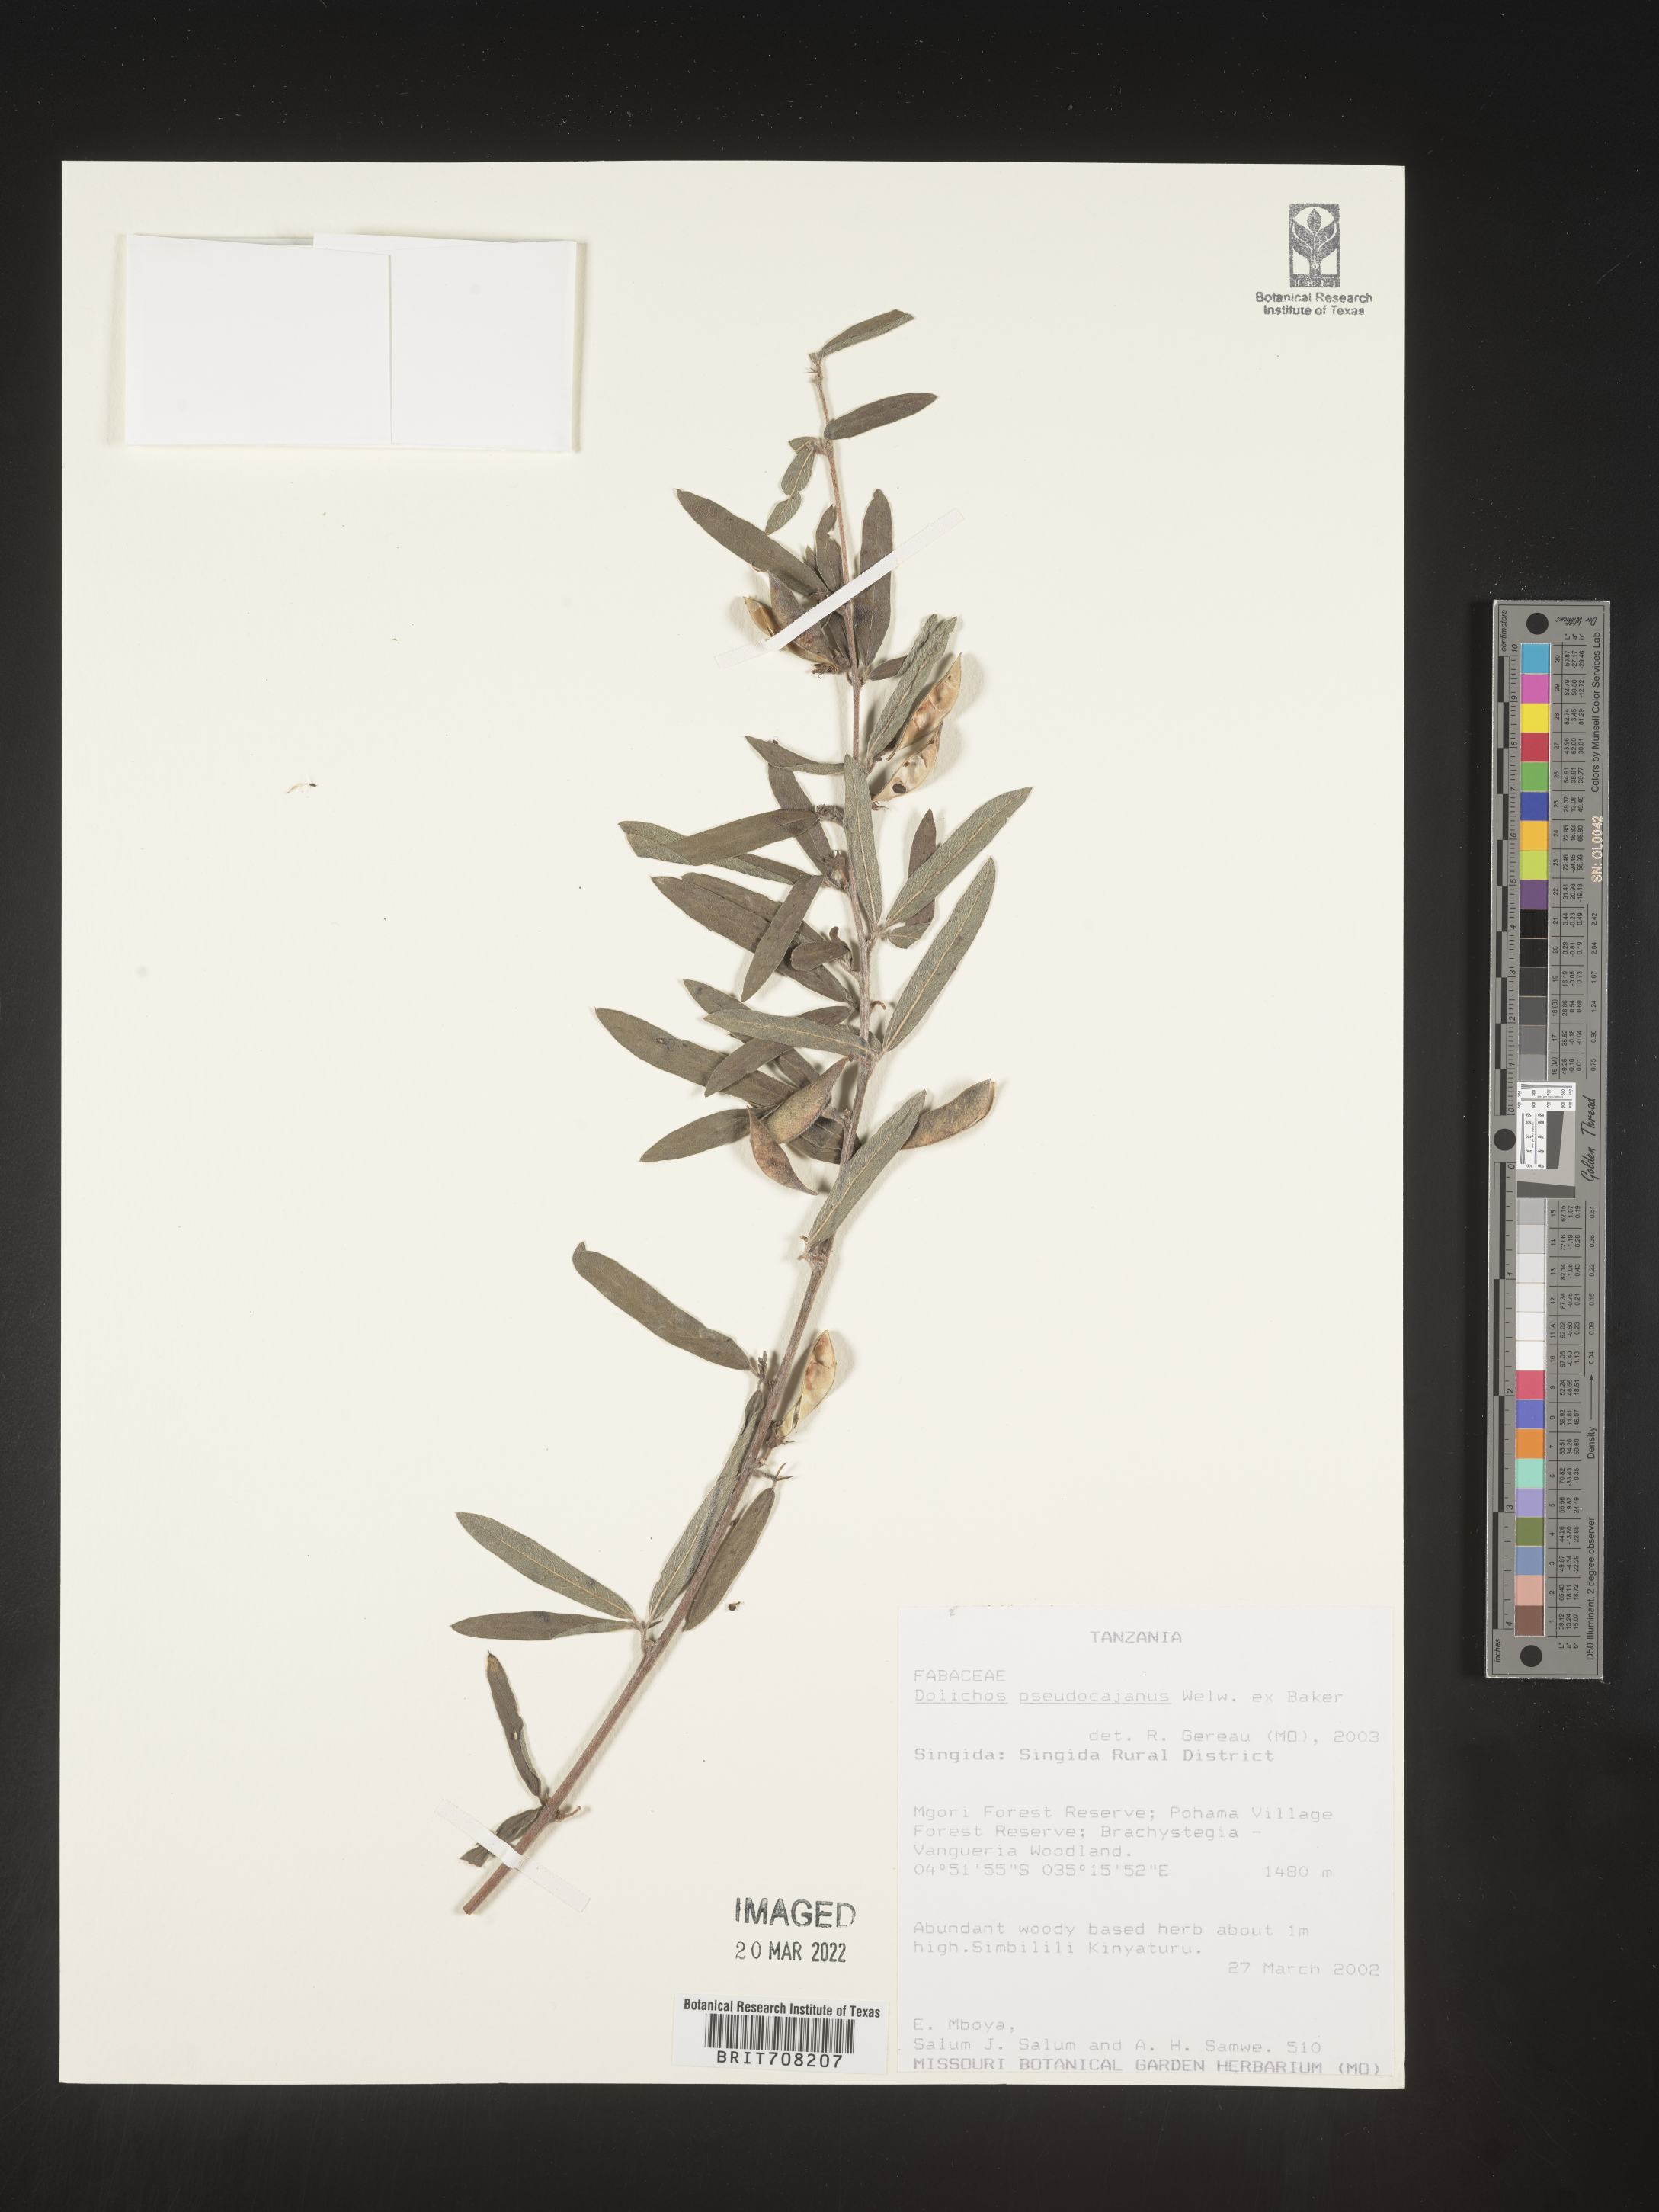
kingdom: Plantae
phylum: Tracheophyta
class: Magnoliopsida
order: Fabales
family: Fabaceae
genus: Dolichos
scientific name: Dolichos
